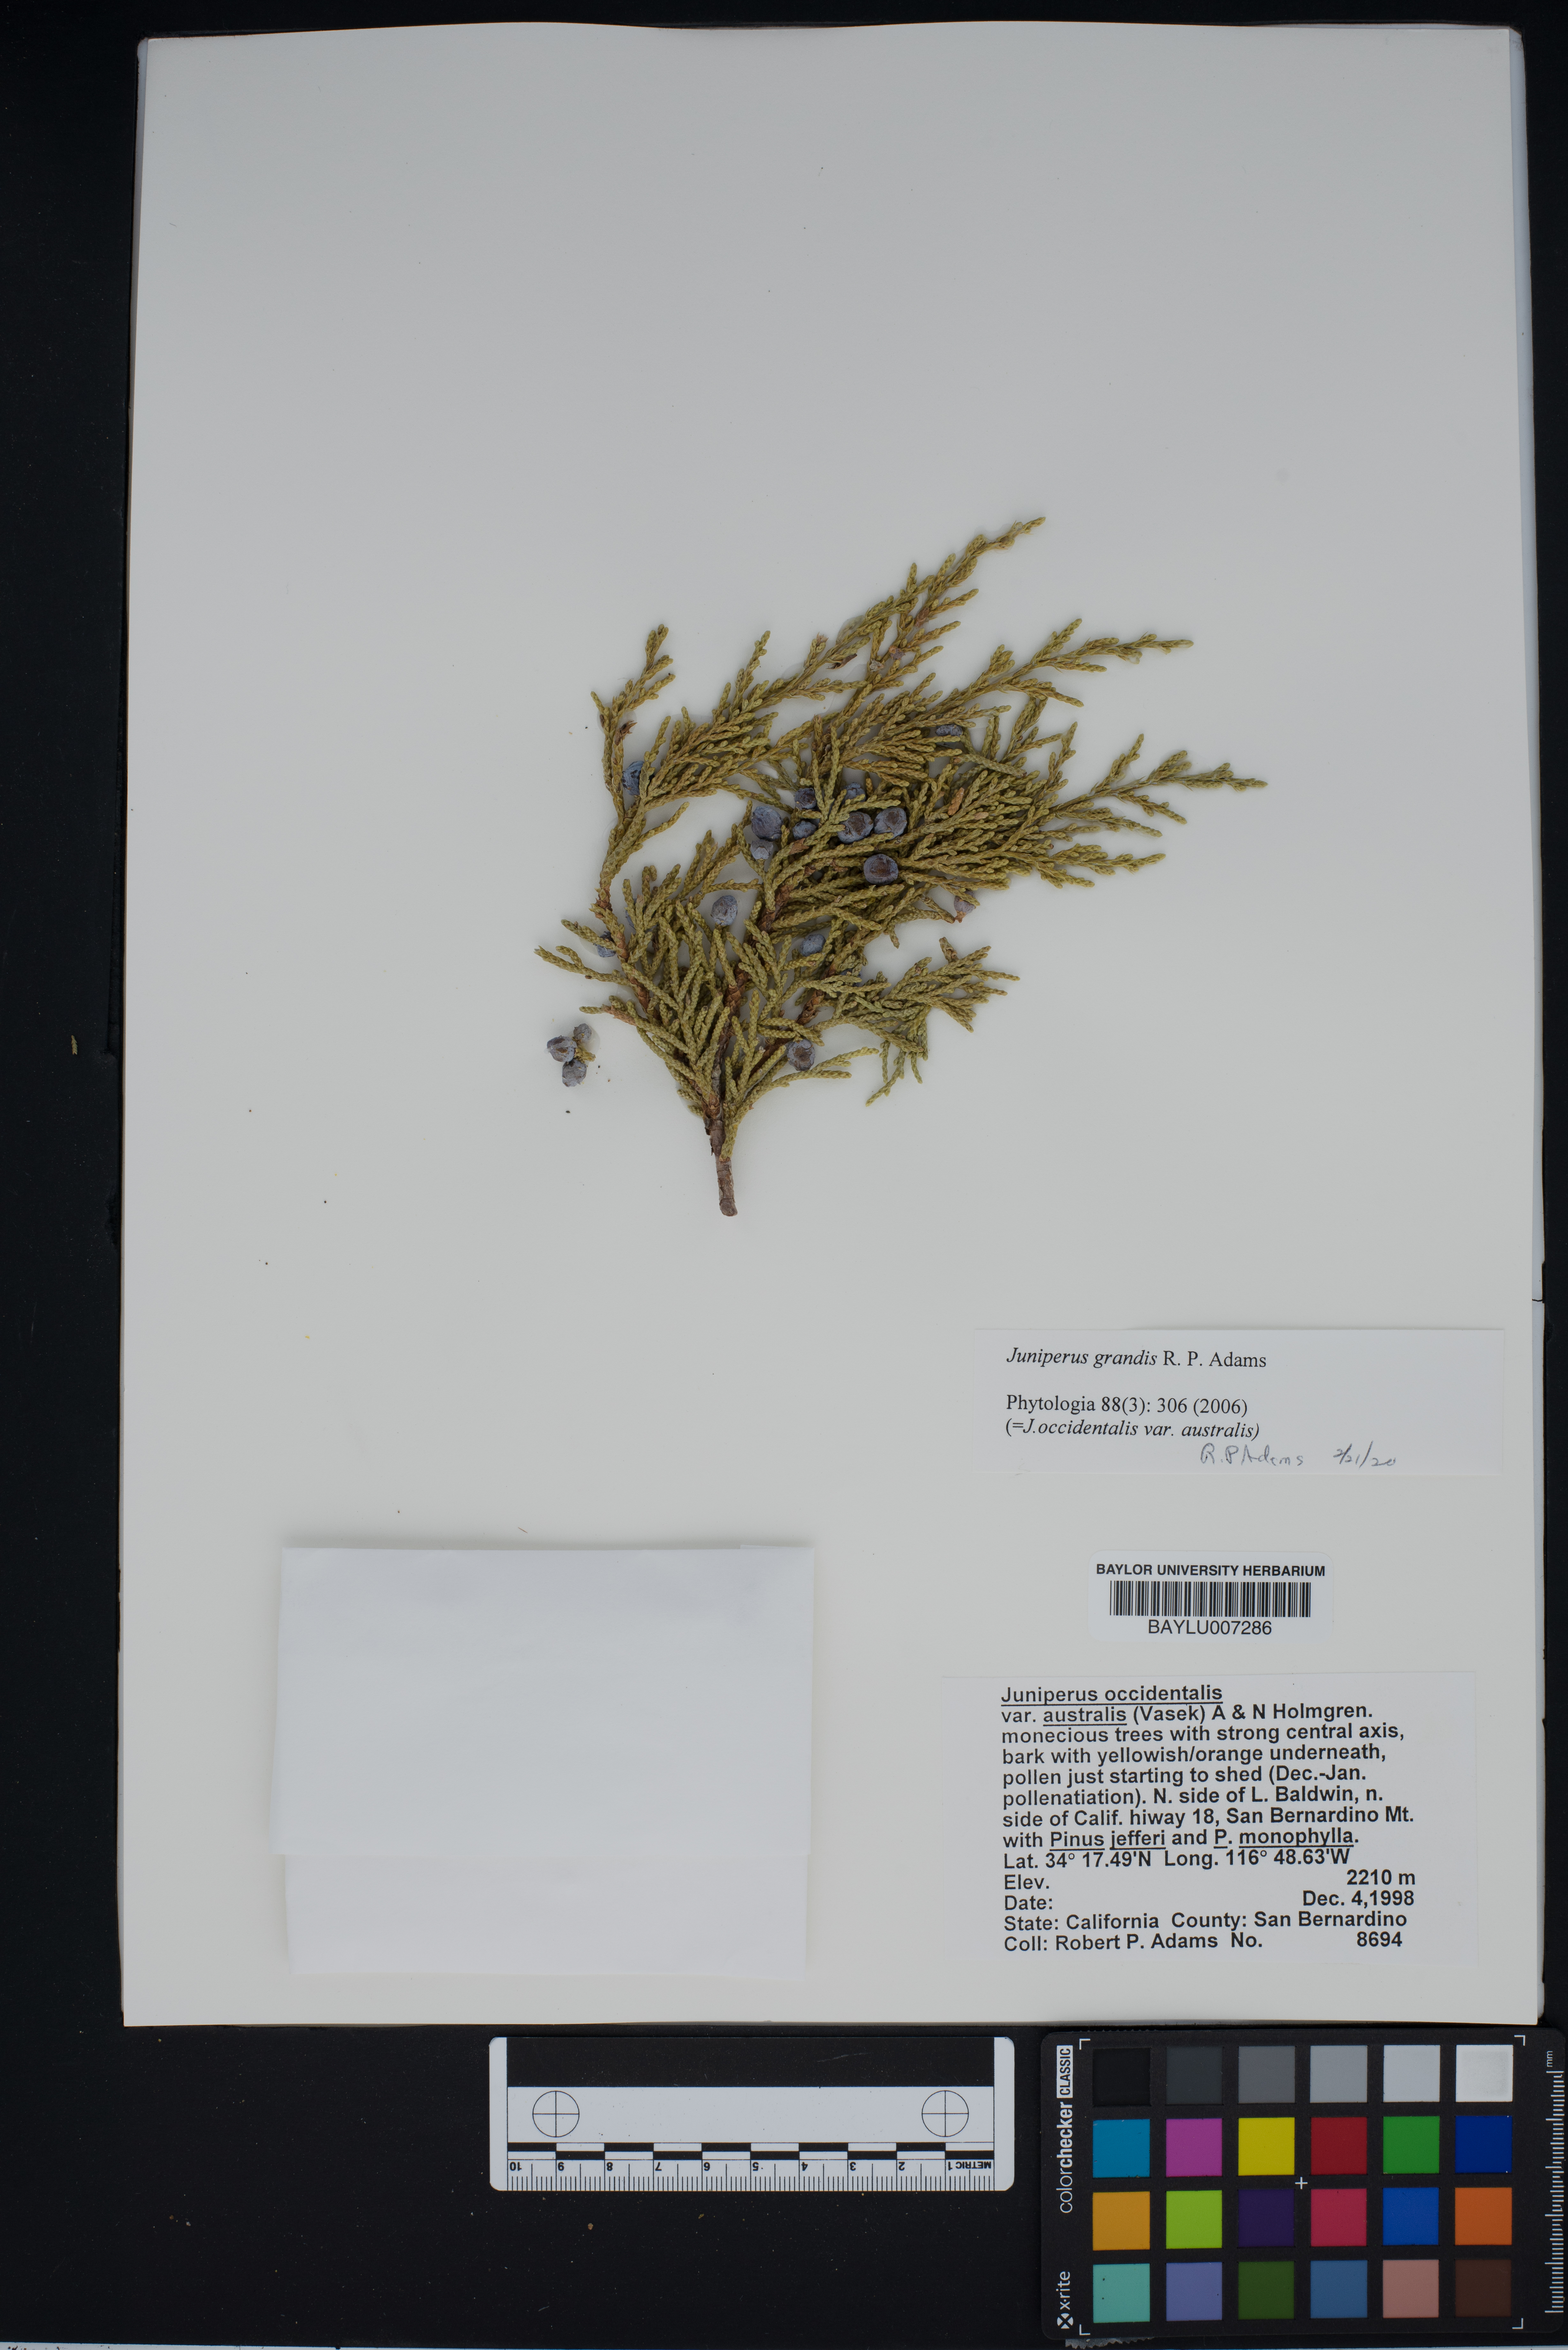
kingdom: Plantae
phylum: Tracheophyta
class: Pinopsida
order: Pinales
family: Cupressaceae
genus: Juniperus
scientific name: Juniperus occidentalis
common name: Western juniper
